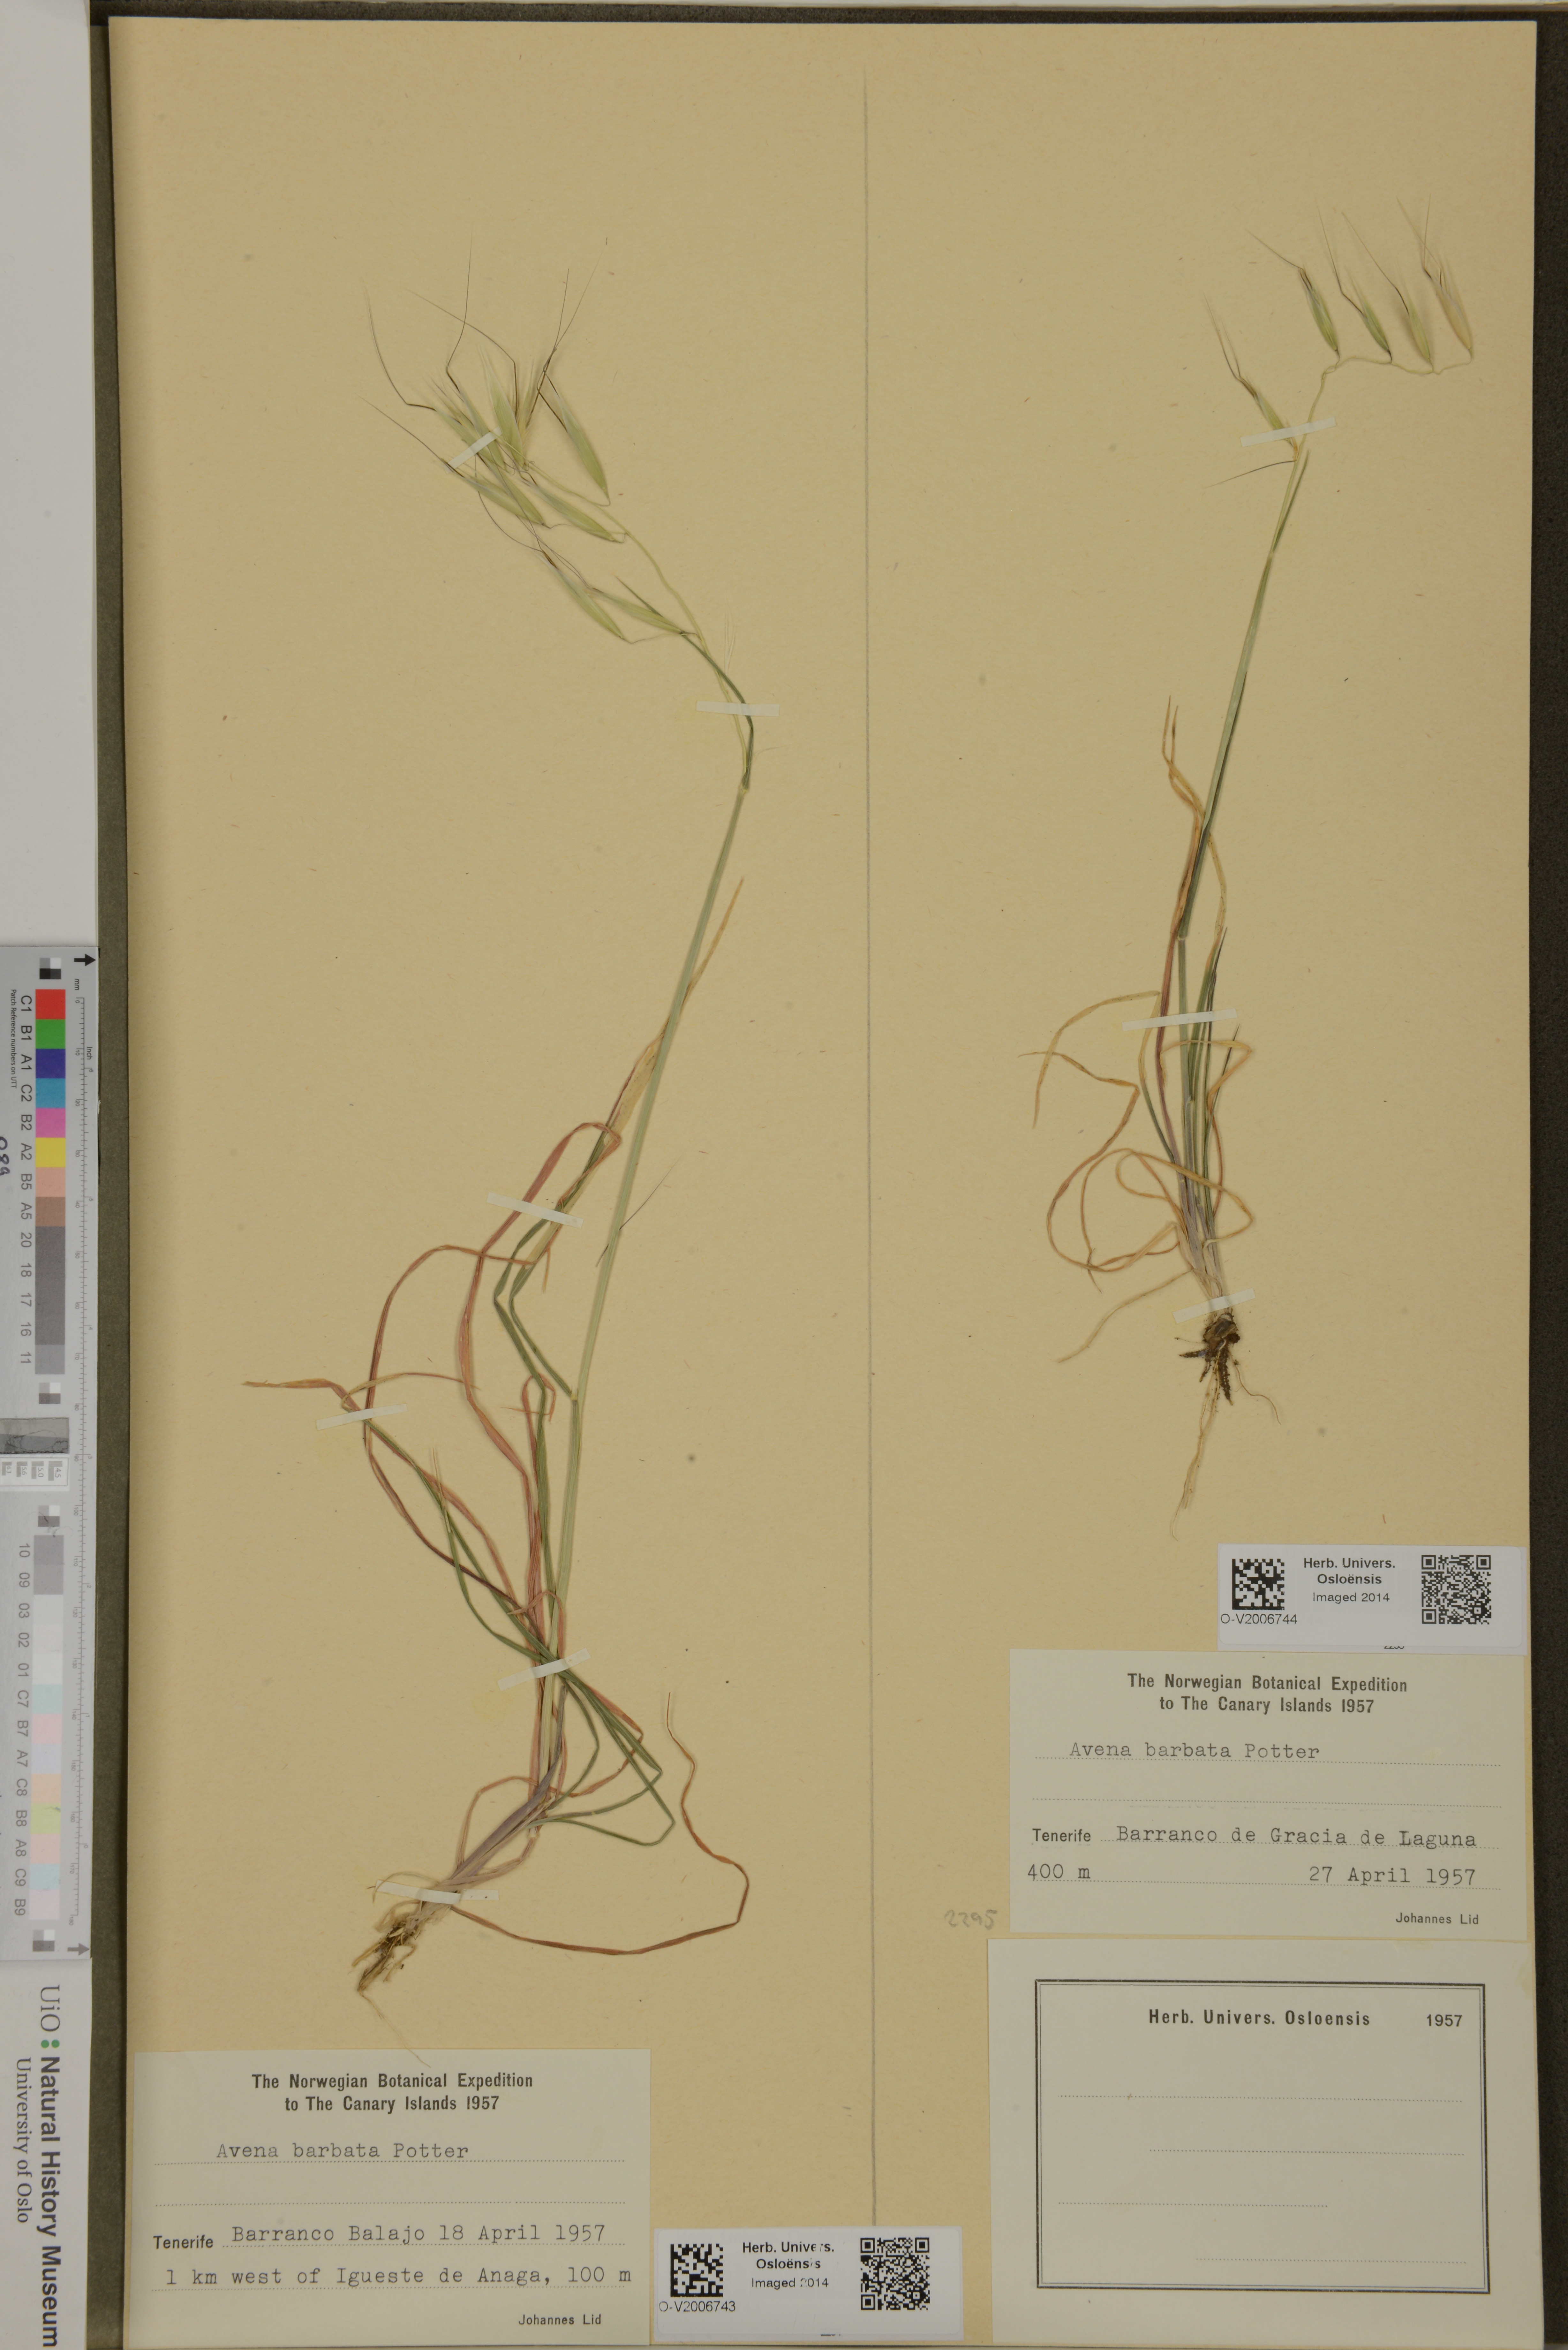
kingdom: Plantae
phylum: Tracheophyta
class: Liliopsida
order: Poales
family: Poaceae
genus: Avena
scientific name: Avena barbata
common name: Slender oat
